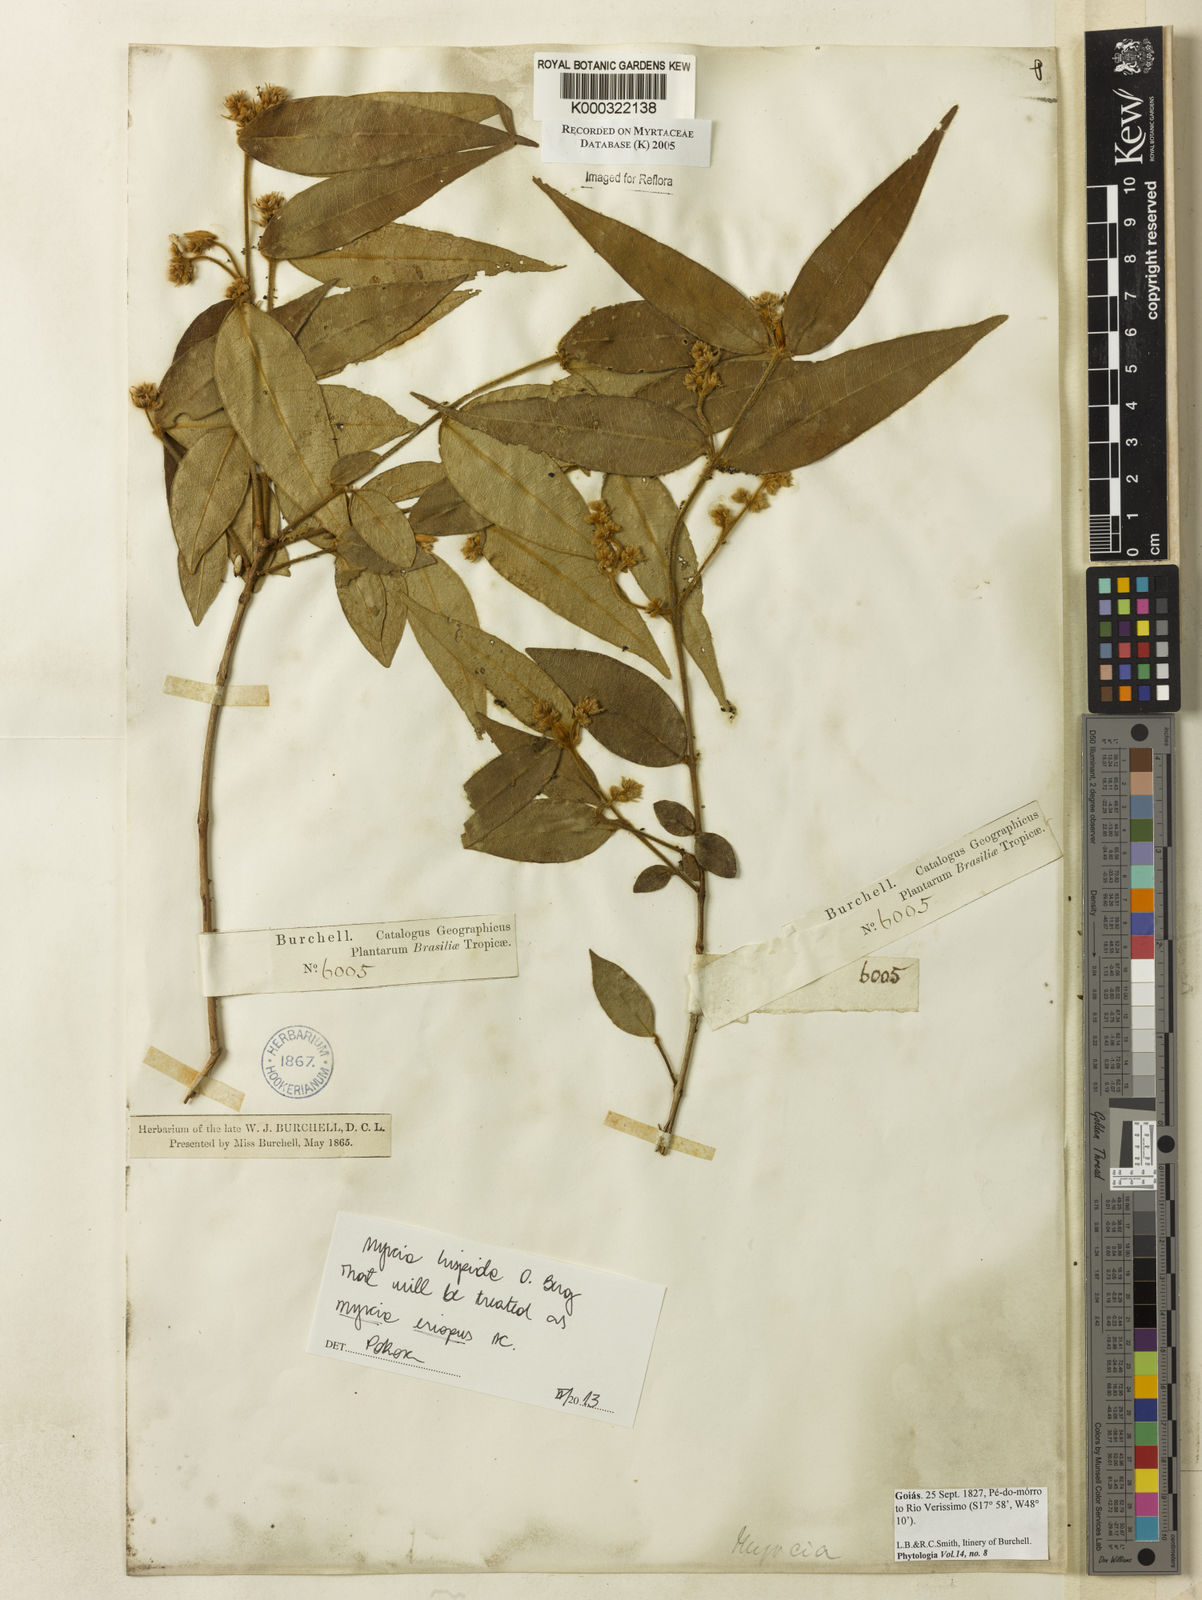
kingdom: Plantae
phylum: Tracheophyta
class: Magnoliopsida
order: Myrtales
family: Myrtaceae
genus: Myrcia
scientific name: Myrcia
